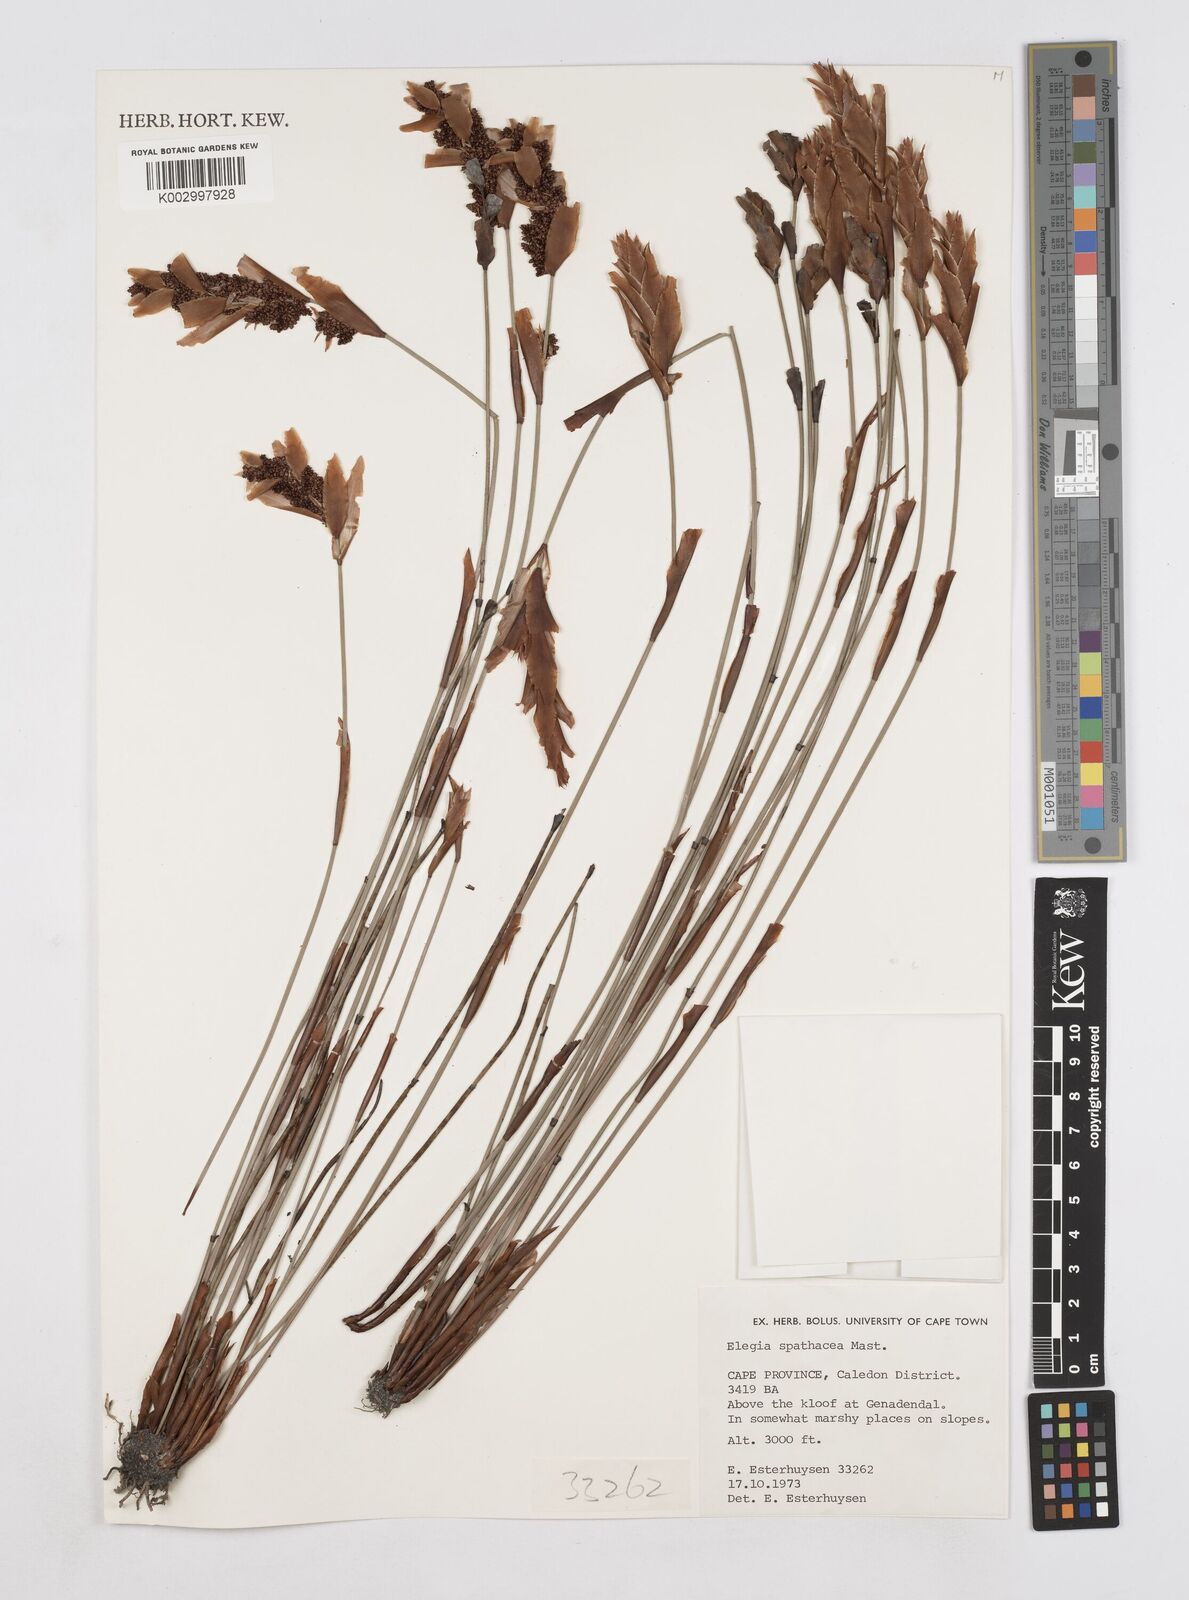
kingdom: Plantae
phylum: Tracheophyta
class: Liliopsida
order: Poales
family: Restionaceae
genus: Elegia
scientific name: Elegia spathacea
